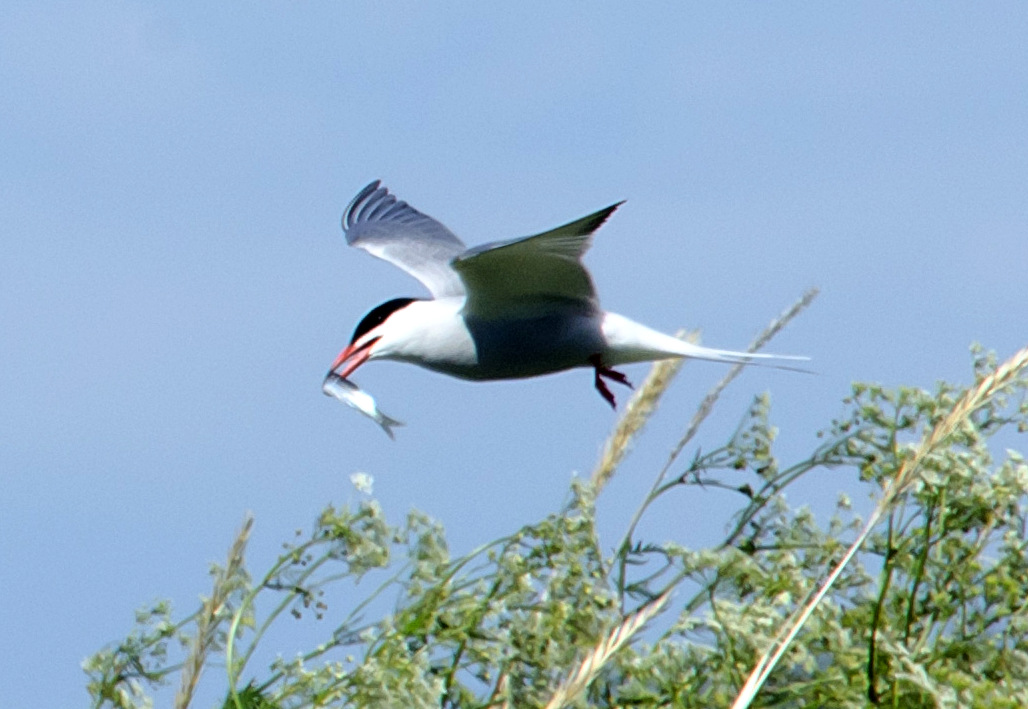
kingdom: Animalia
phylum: Chordata
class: Aves
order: Charadriiformes
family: Laridae
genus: Sterna
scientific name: Sterna hirundo
